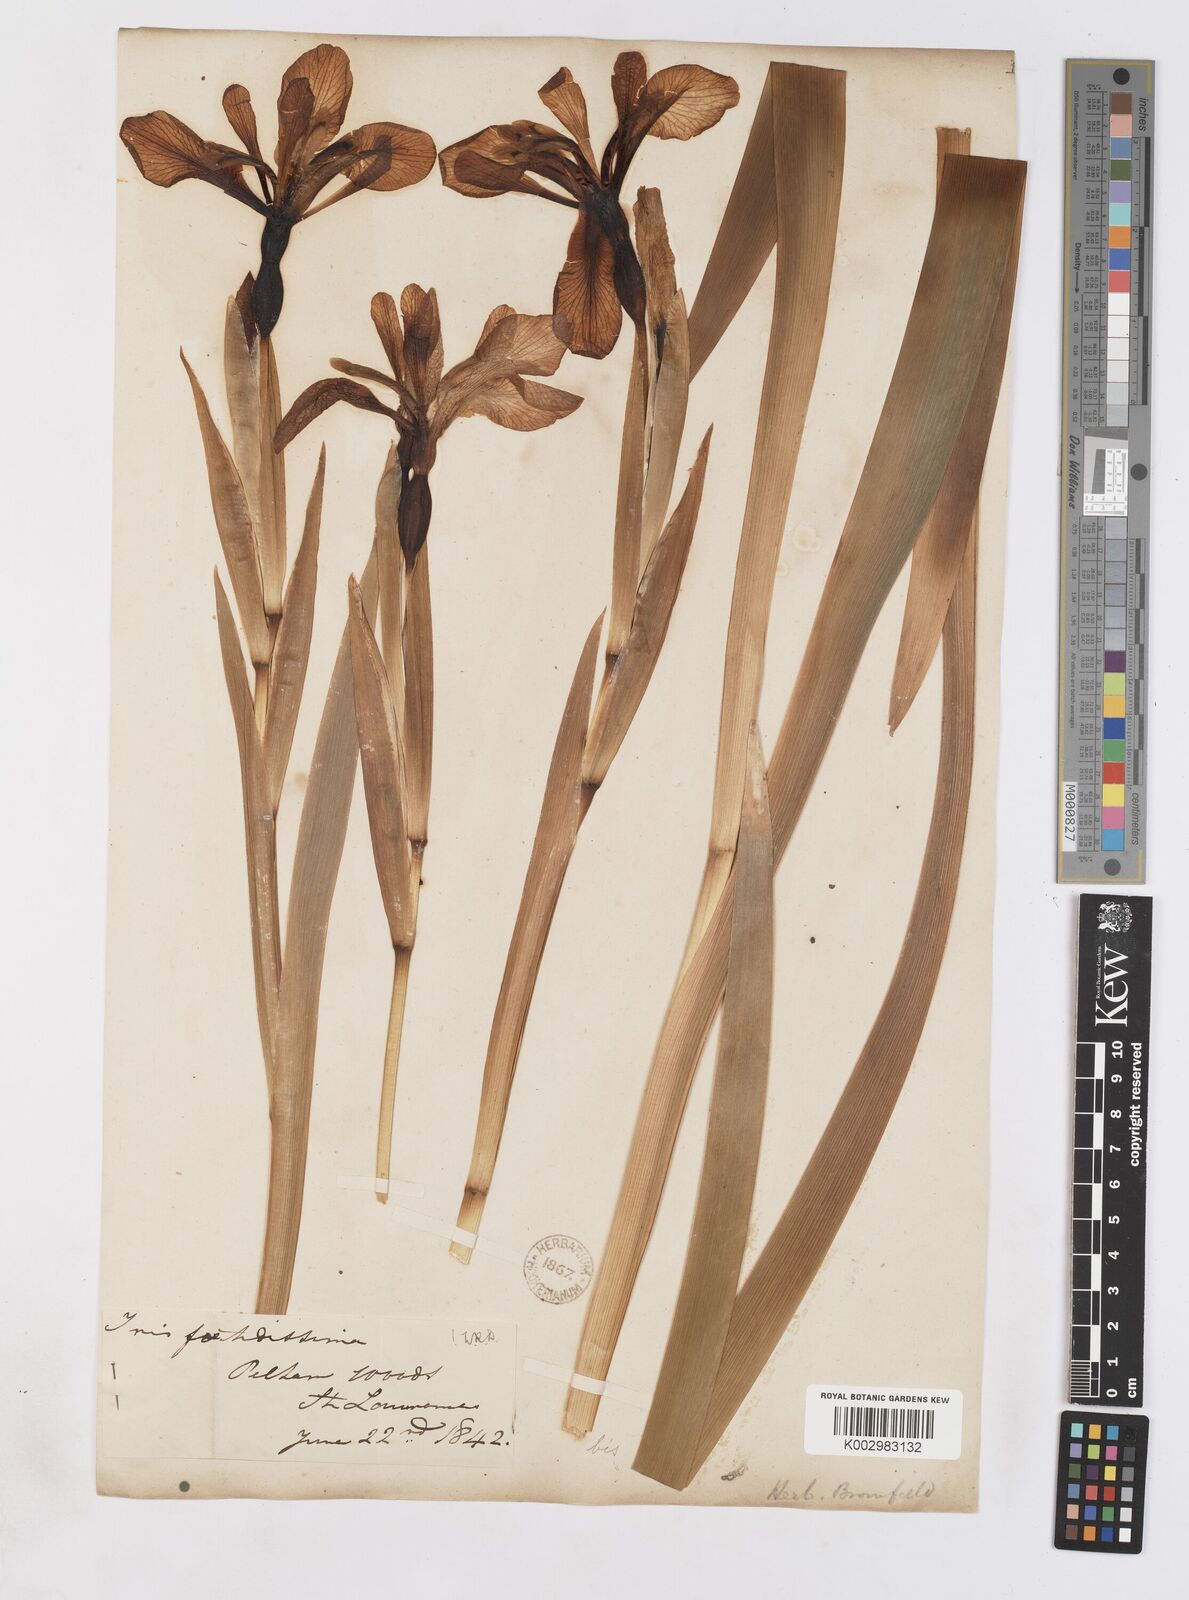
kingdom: Plantae
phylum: Tracheophyta
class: Liliopsida
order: Asparagales
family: Iridaceae
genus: Iris
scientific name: Iris foetidissima
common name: Stinking iris
